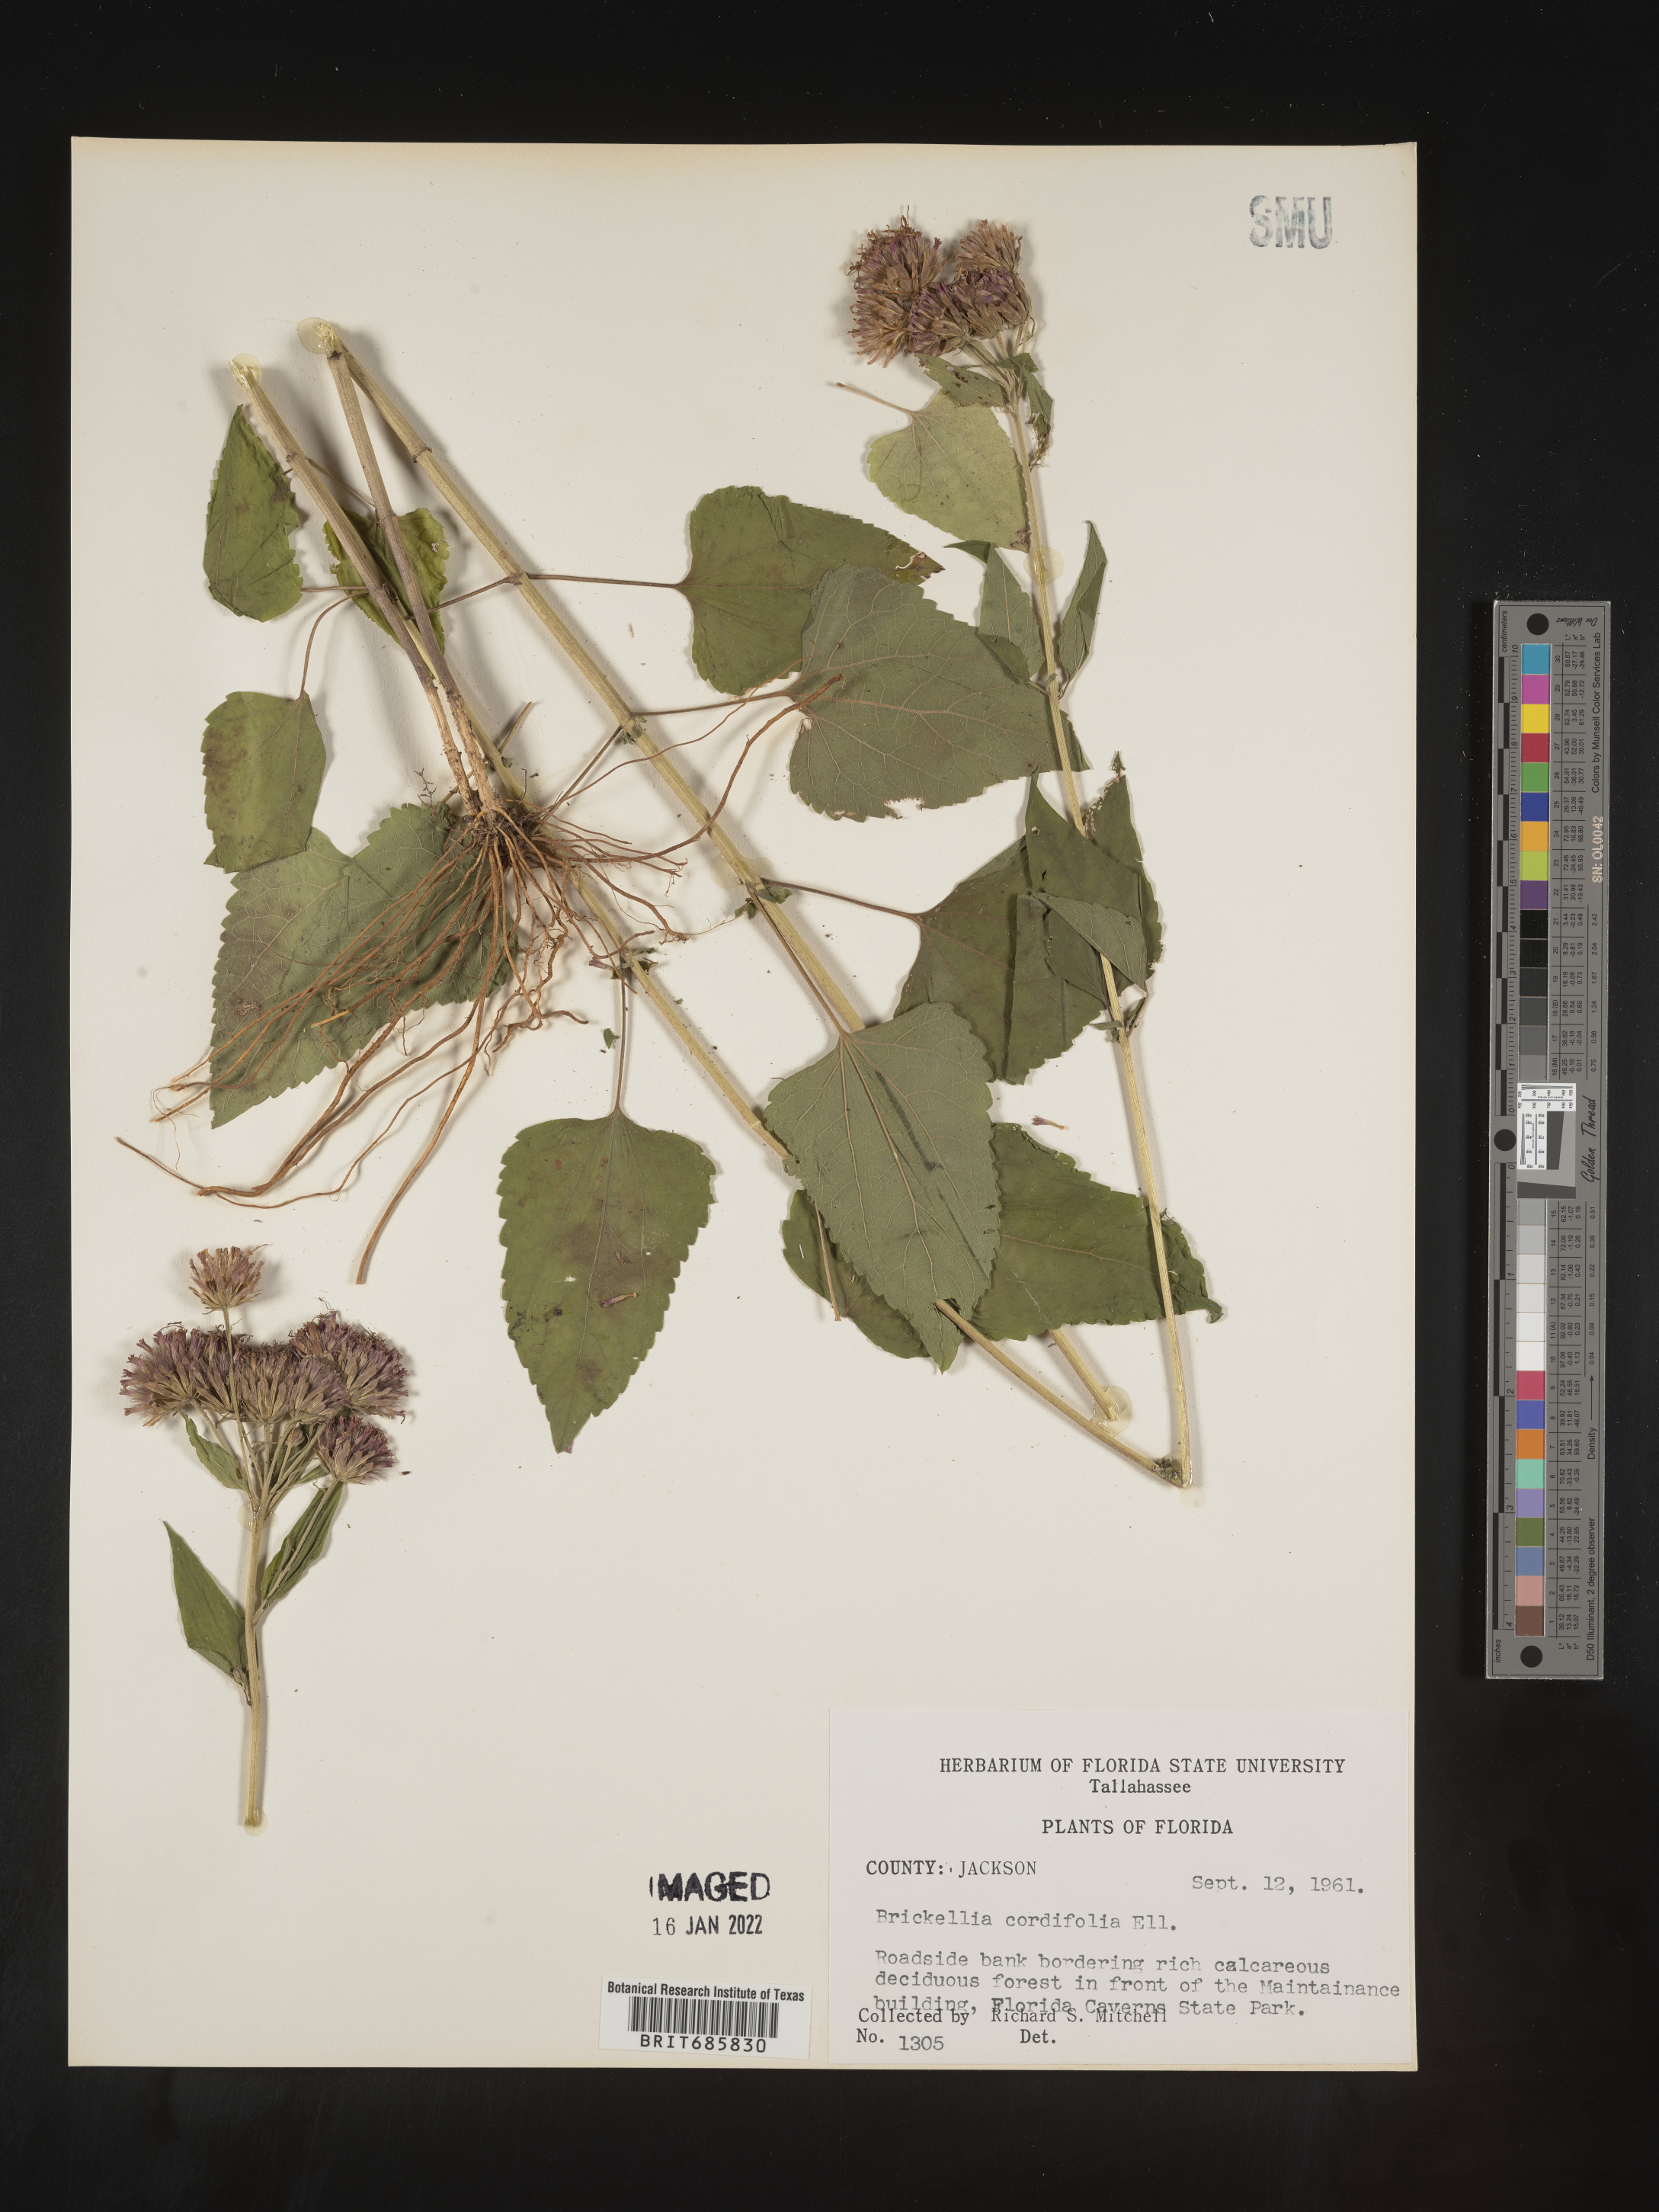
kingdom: Plantae
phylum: Tracheophyta
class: Magnoliopsida
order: Asterales
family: Asteraceae
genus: Brickellia
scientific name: Brickellia cordifolia
